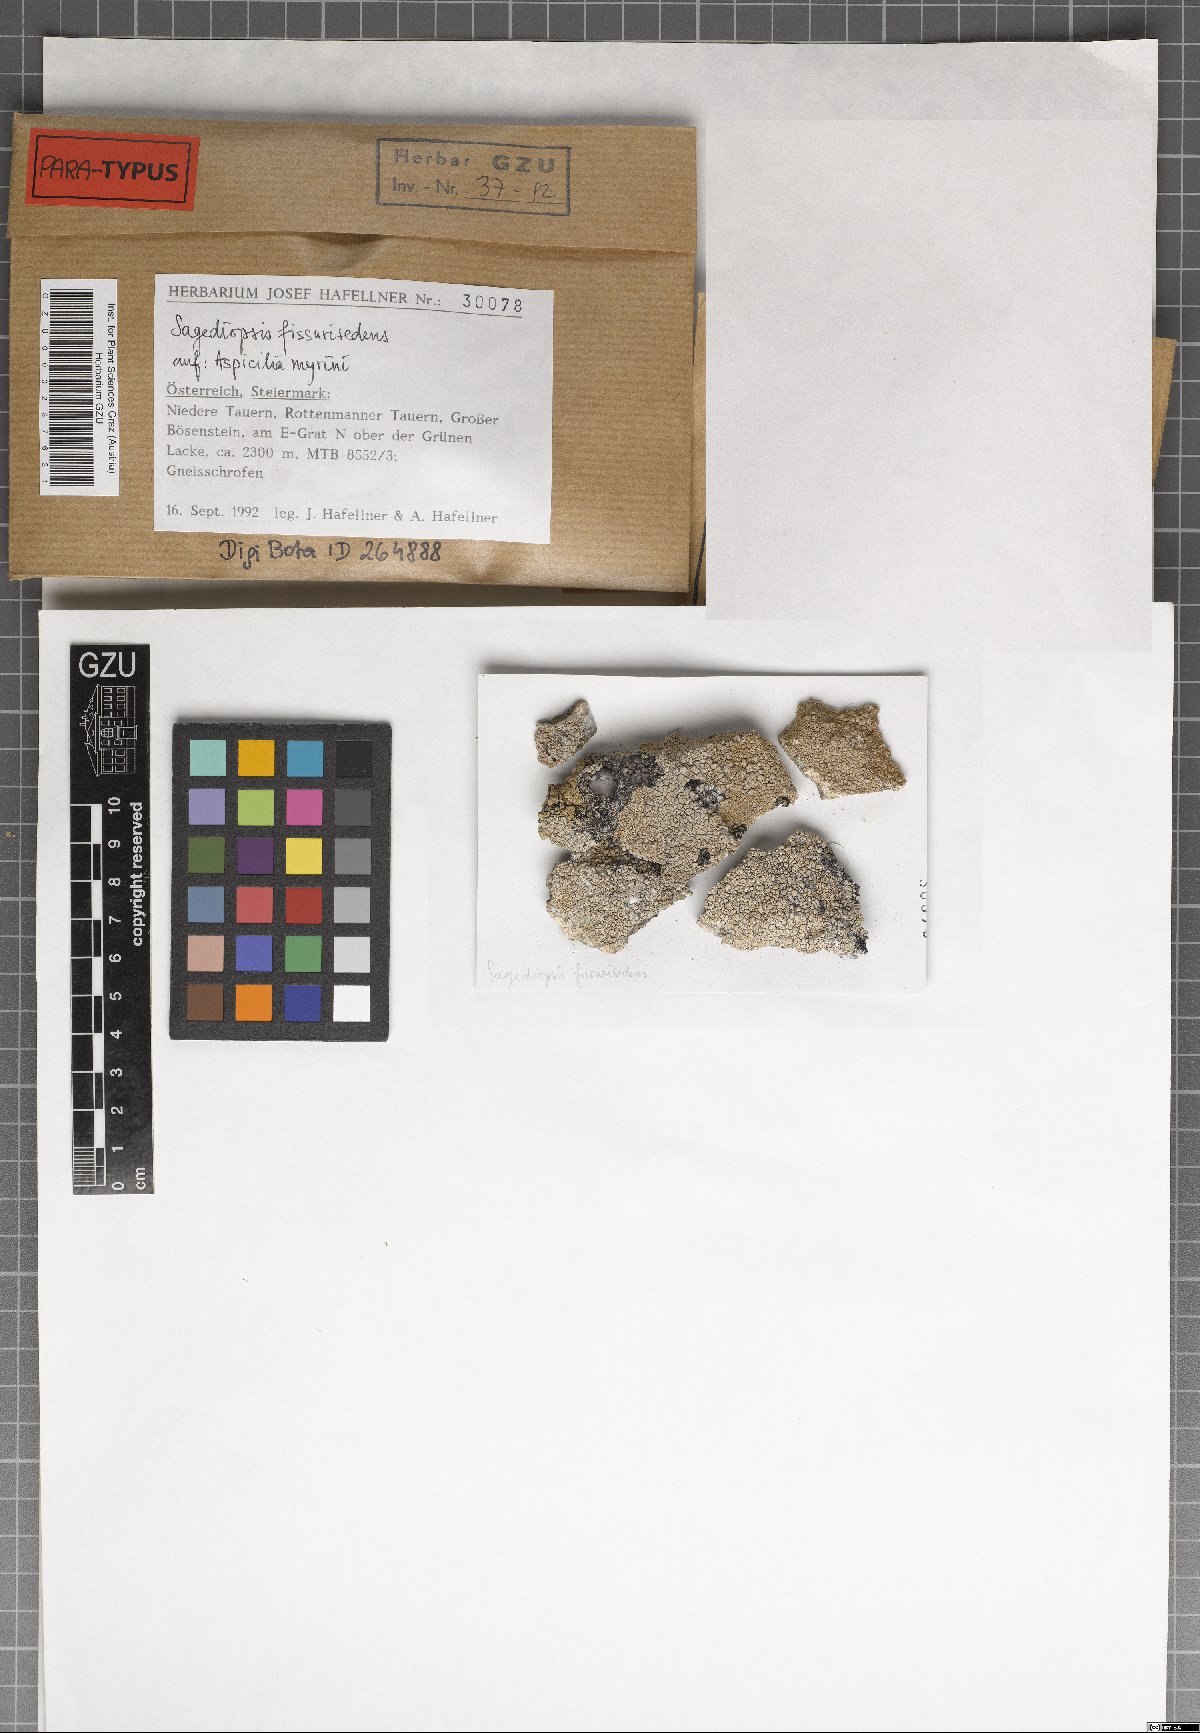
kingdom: Fungi
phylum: Ascomycota
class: Eurotiomycetes
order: Verrucariales
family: Adelococcaceae
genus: Sagediopsis
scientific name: Sagediopsis fissurisedens
